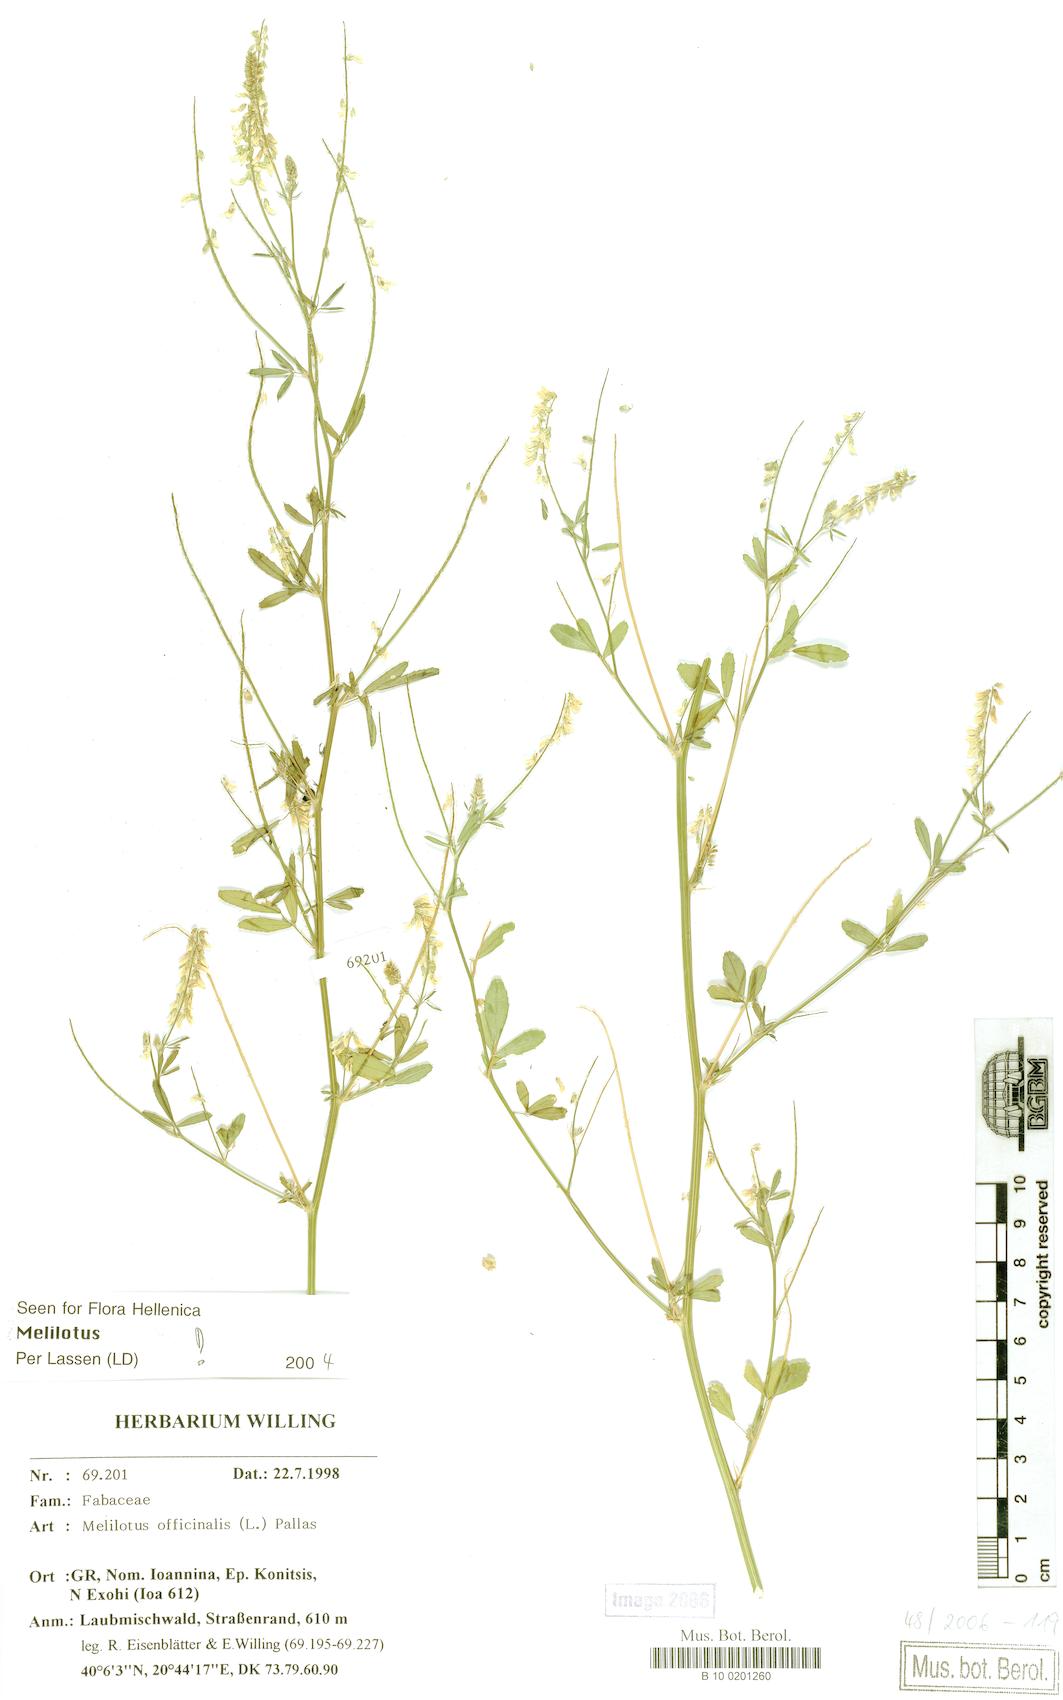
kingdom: Plantae
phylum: Tracheophyta
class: Magnoliopsida
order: Fabales
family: Fabaceae
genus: Melilotus
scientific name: Melilotus officinalis
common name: Sweetclover
